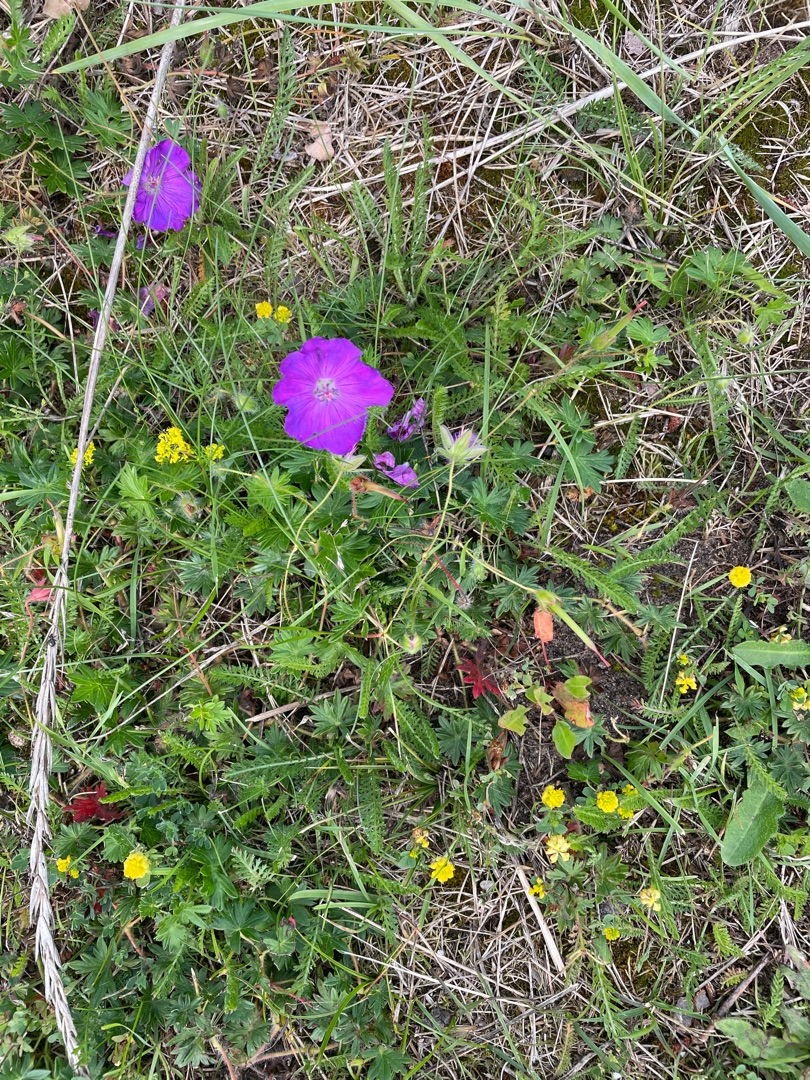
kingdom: Plantae
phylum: Tracheophyta
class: Magnoliopsida
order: Geraniales
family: Geraniaceae
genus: Geranium
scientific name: Geranium sanguineum
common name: Blodrød storkenæb
